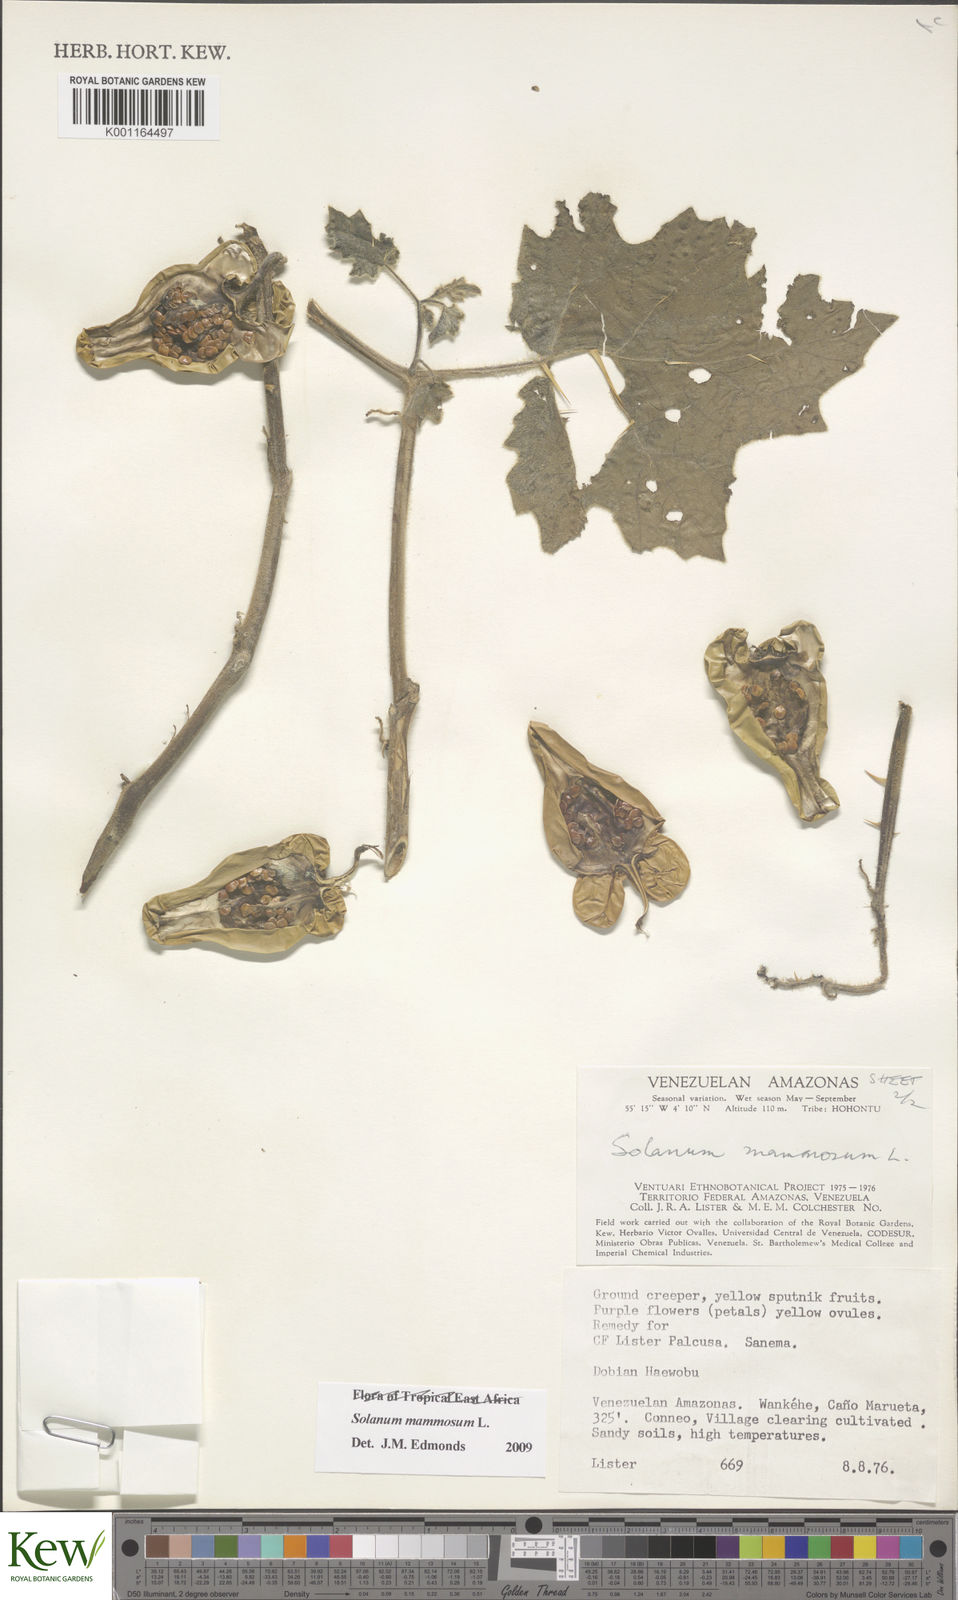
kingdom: Plantae
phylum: Tracheophyta
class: Magnoliopsida
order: Solanales
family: Solanaceae
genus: Solanum
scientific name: Solanum mammosum
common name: Nipple fruit
